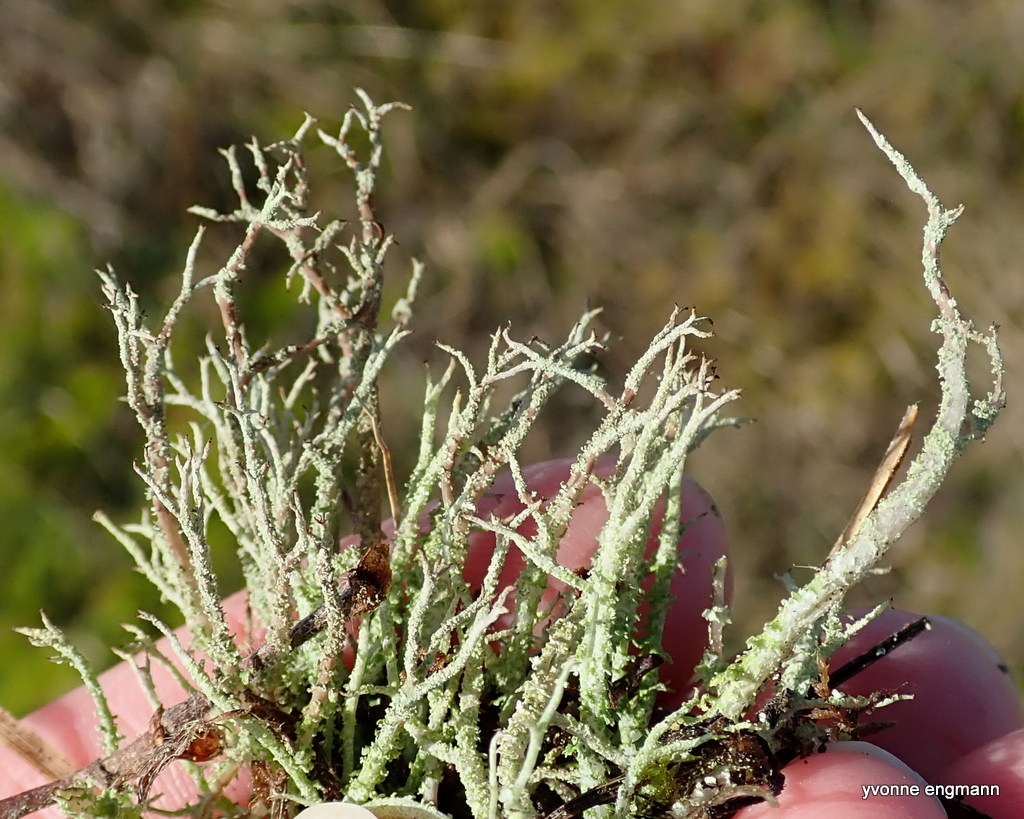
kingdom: Fungi
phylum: Ascomycota
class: Lecanoromycetes
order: Lecanorales
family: Cladoniaceae
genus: Cladonia
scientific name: Cladonia scabriuscula
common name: ru bægerlav
